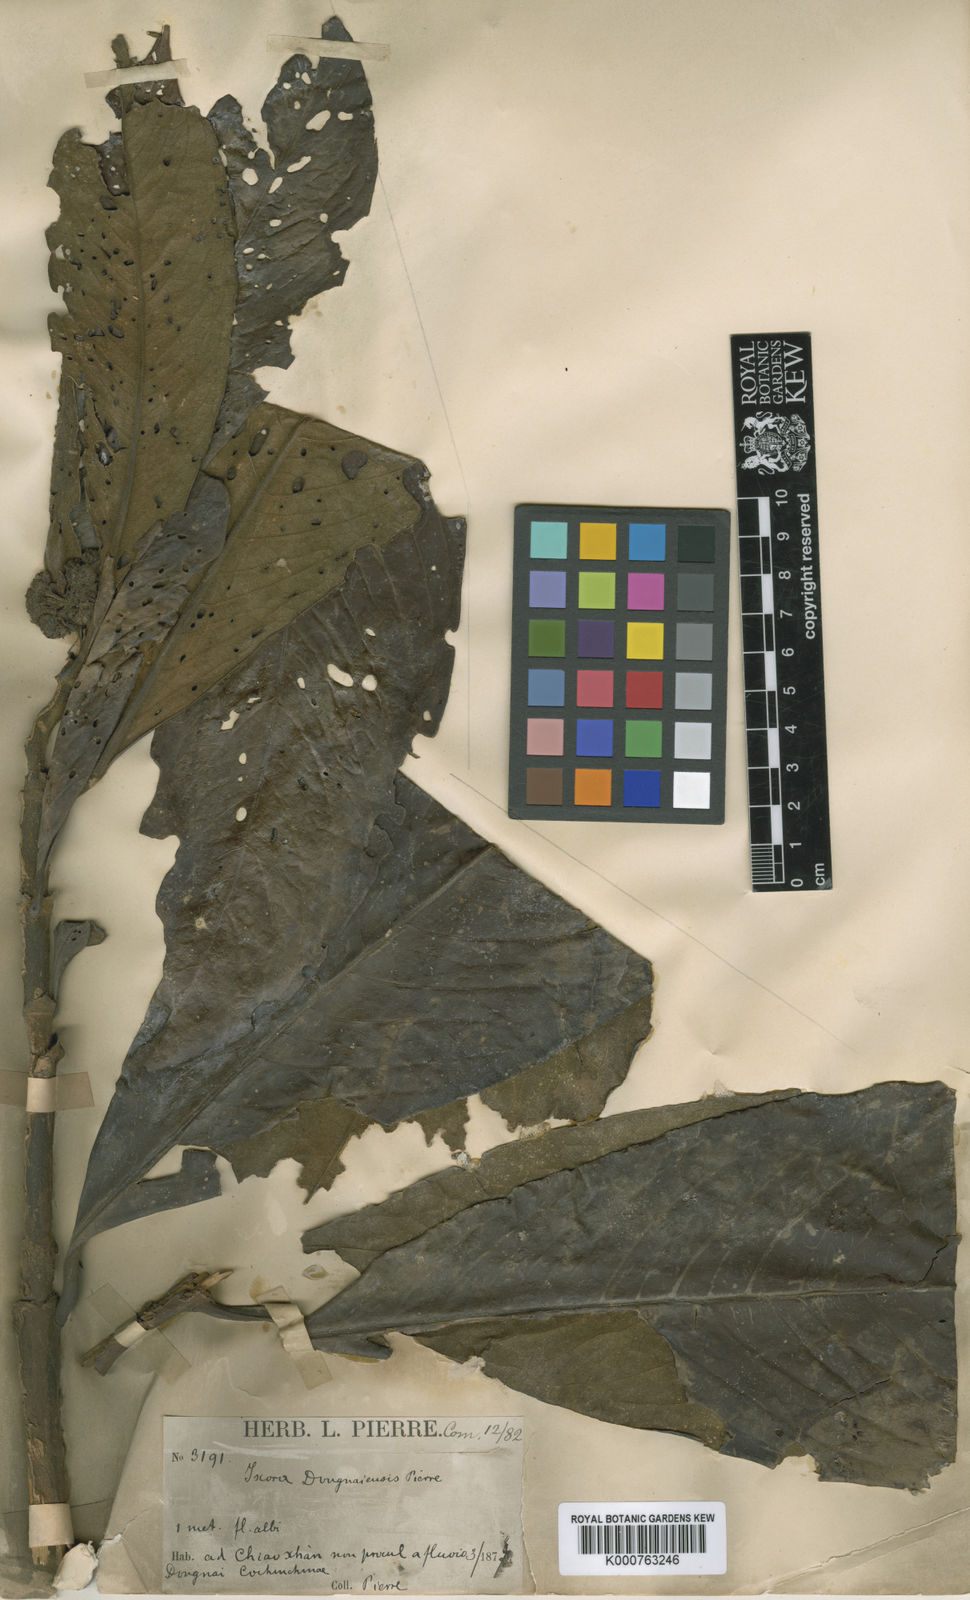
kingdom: Plantae
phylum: Tracheophyta
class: Magnoliopsida
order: Gentianales
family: Rubiaceae
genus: Ixora
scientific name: Ixora dongnaiensis
